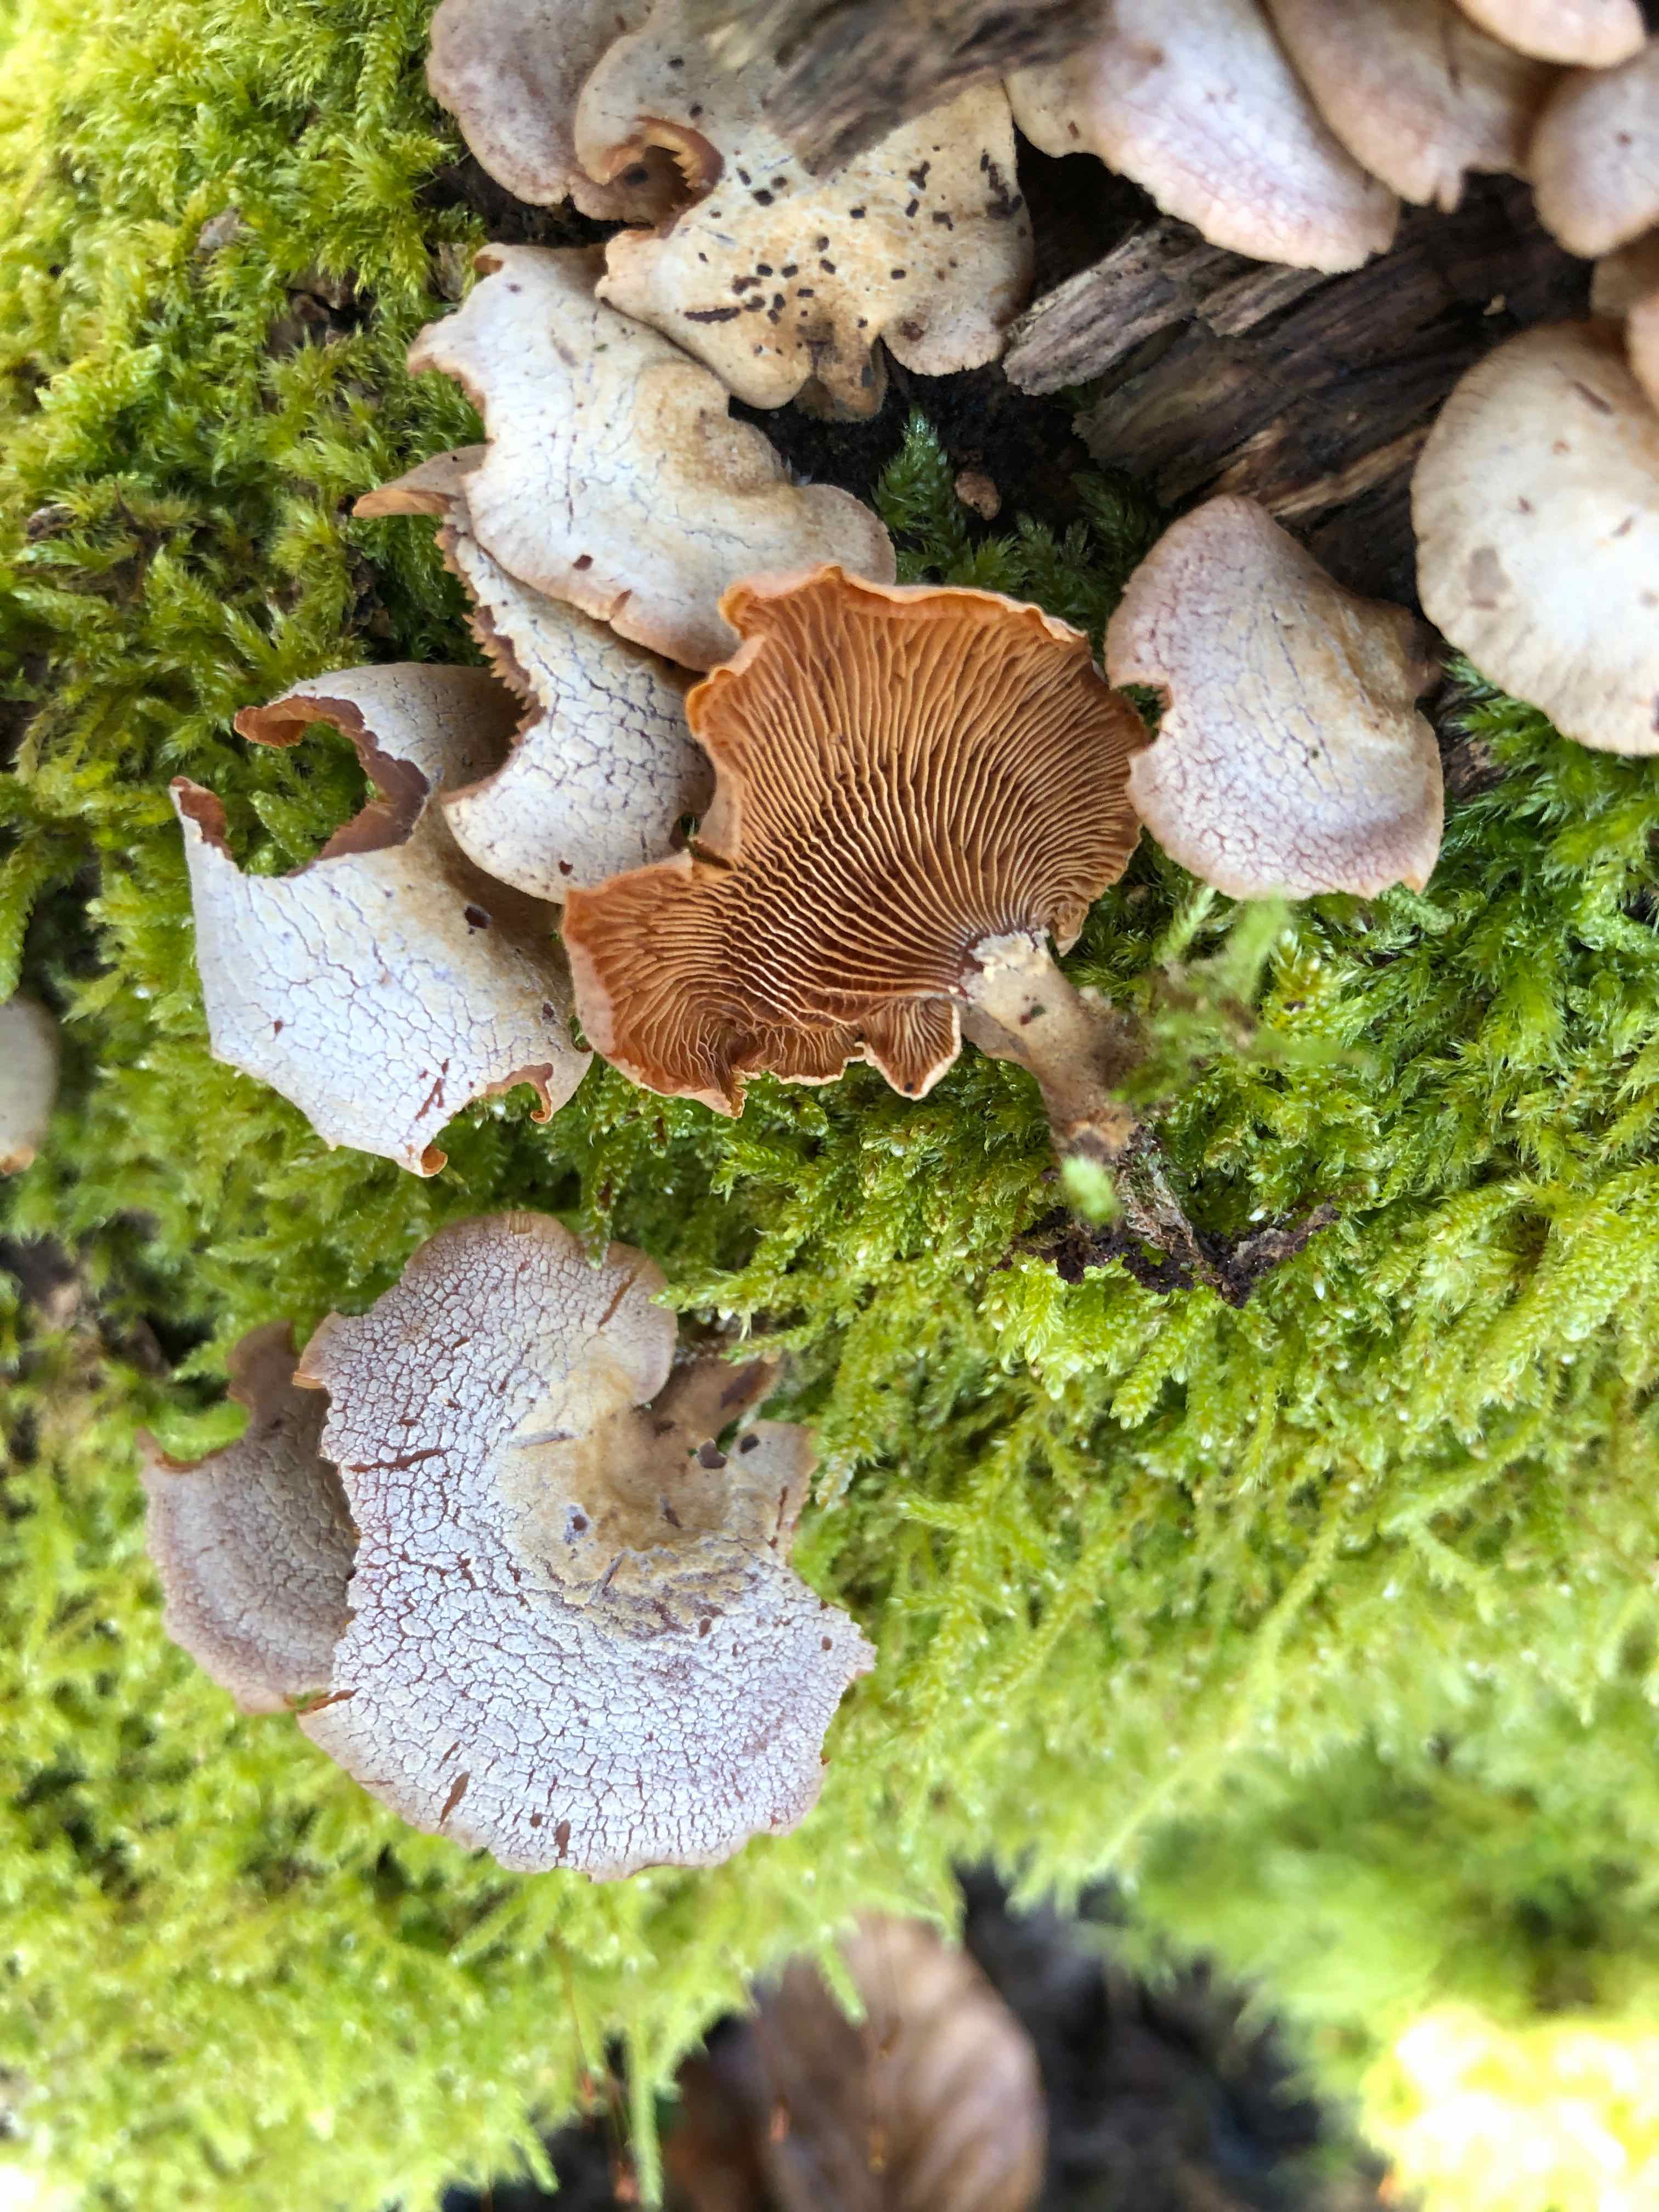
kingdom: Fungi
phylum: Basidiomycota
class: Agaricomycetes
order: Agaricales
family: Mycenaceae
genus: Panellus
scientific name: Panellus stipticus
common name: kliddet epaulethat
